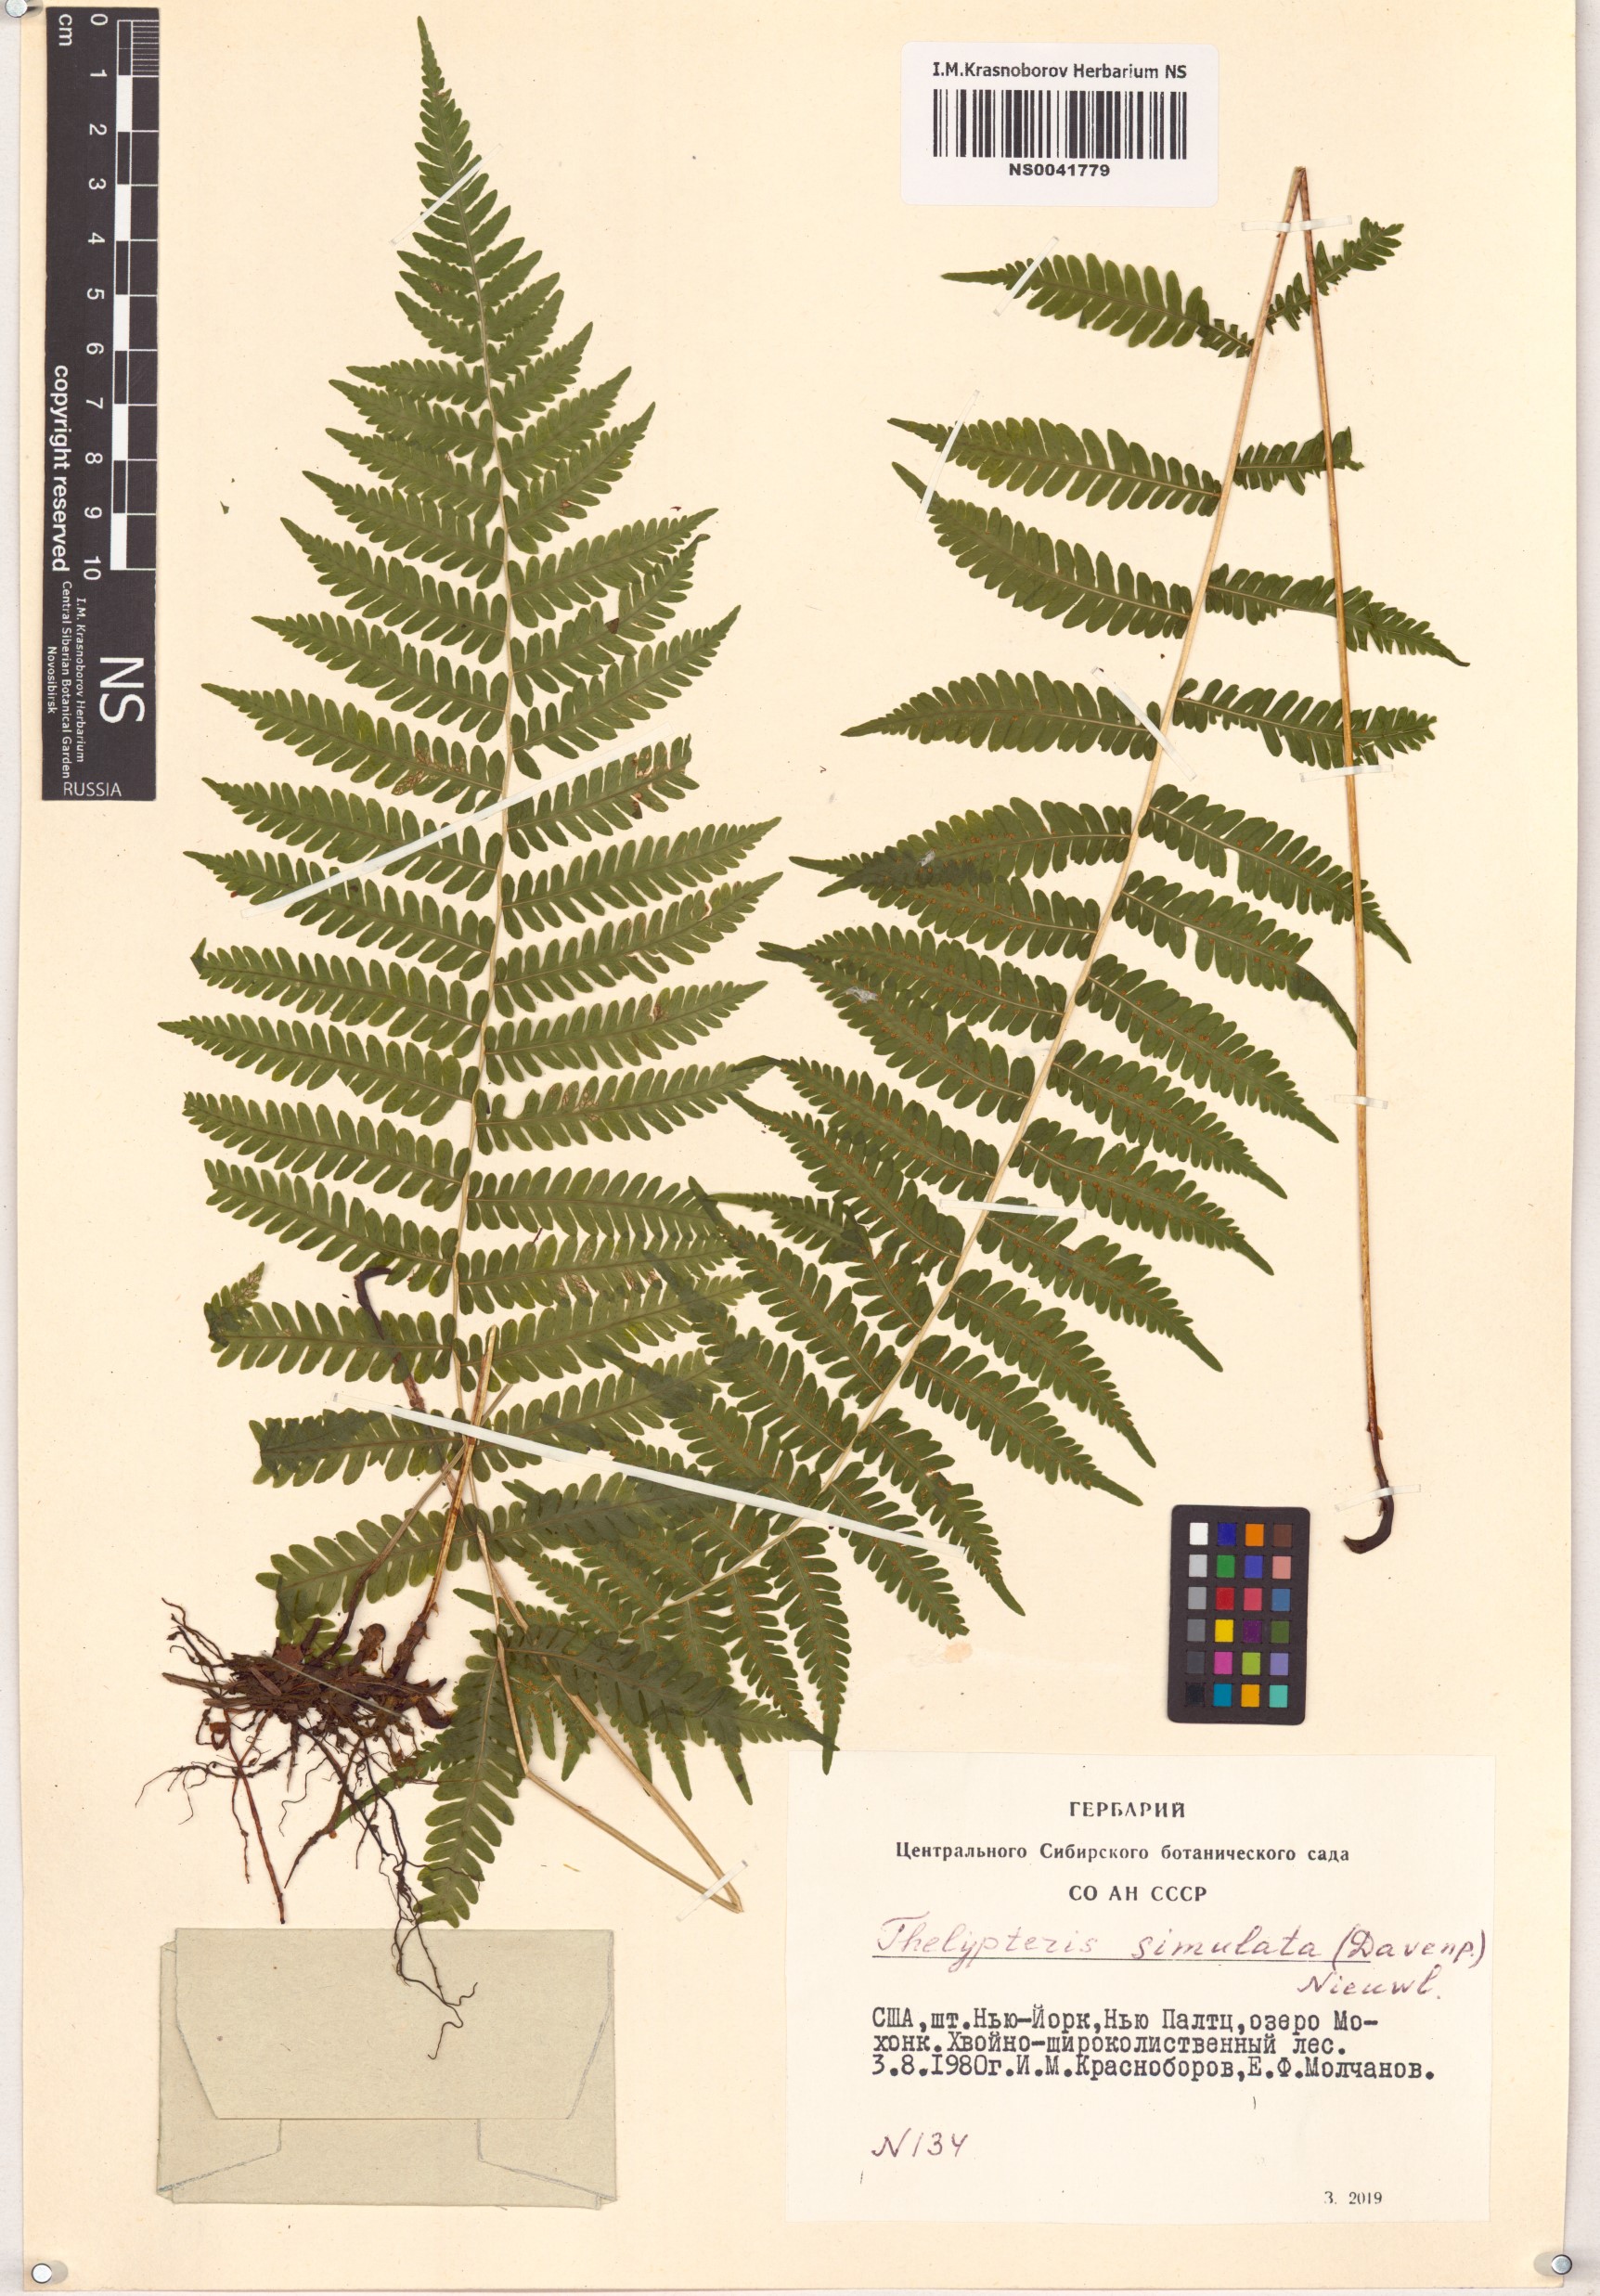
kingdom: Plantae
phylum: Tracheophyta
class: Polypodiopsida
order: Polypodiales
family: Thelypteridaceae
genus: Coryphopteris
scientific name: Coryphopteris simulata
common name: Bog fern
